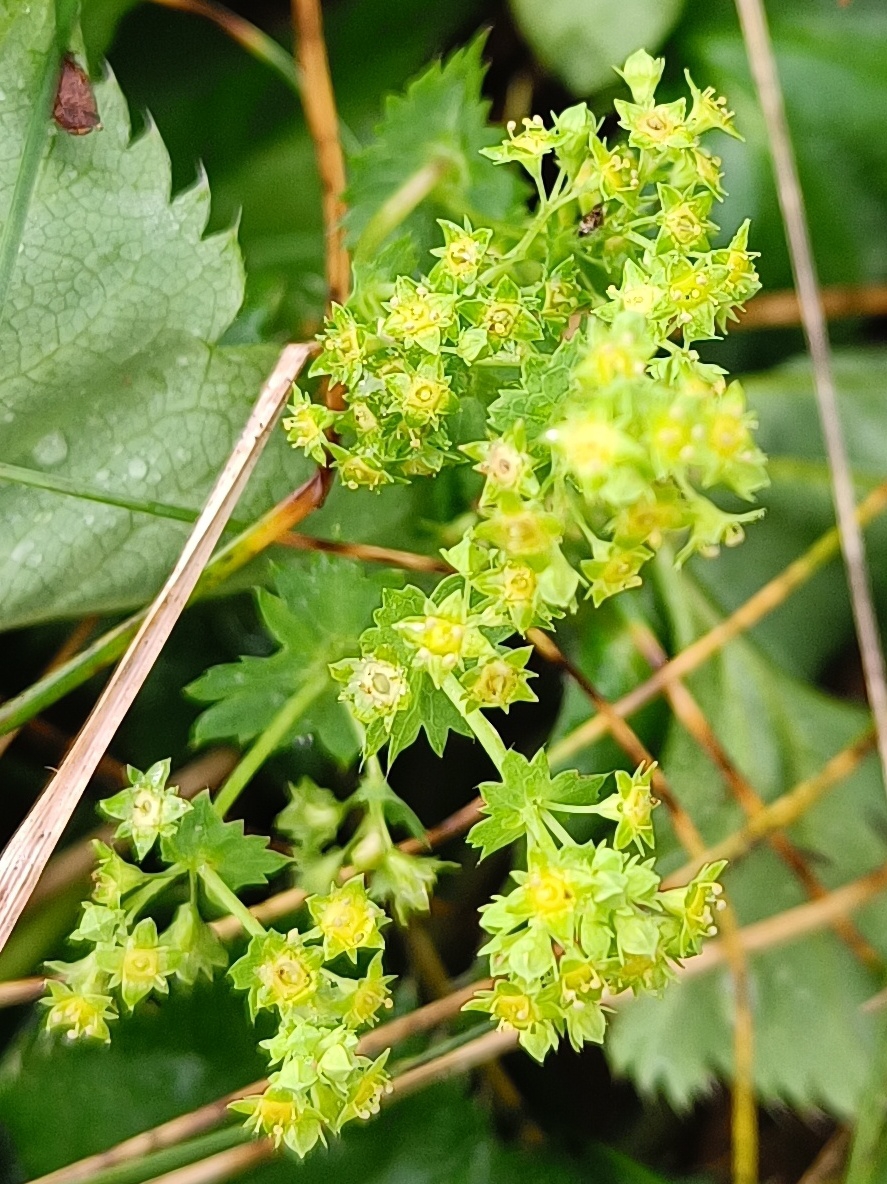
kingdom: Plantae
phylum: Tracheophyta
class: Magnoliopsida
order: Rosales
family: Rosaceae
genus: Alchemilla
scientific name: Alchemilla
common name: Løvefodslægten
